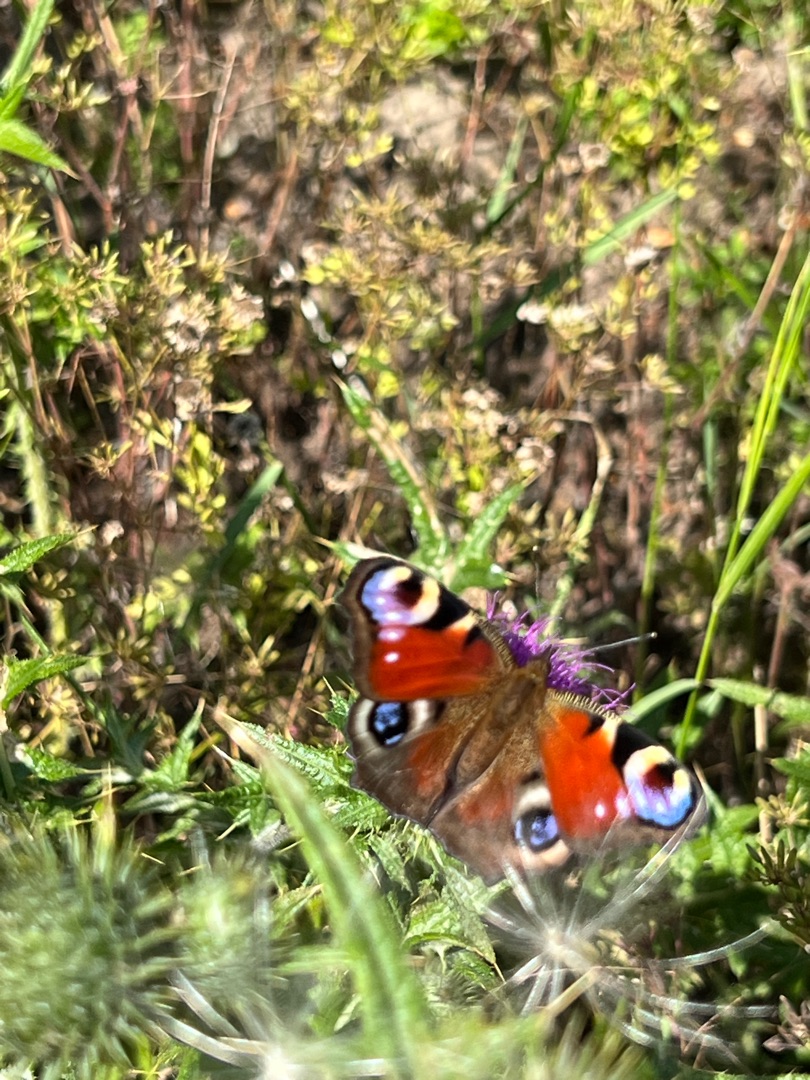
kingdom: Animalia
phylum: Arthropoda
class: Insecta
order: Lepidoptera
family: Nymphalidae
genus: Aglais
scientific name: Aglais io
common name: Dagpåfugleøje
